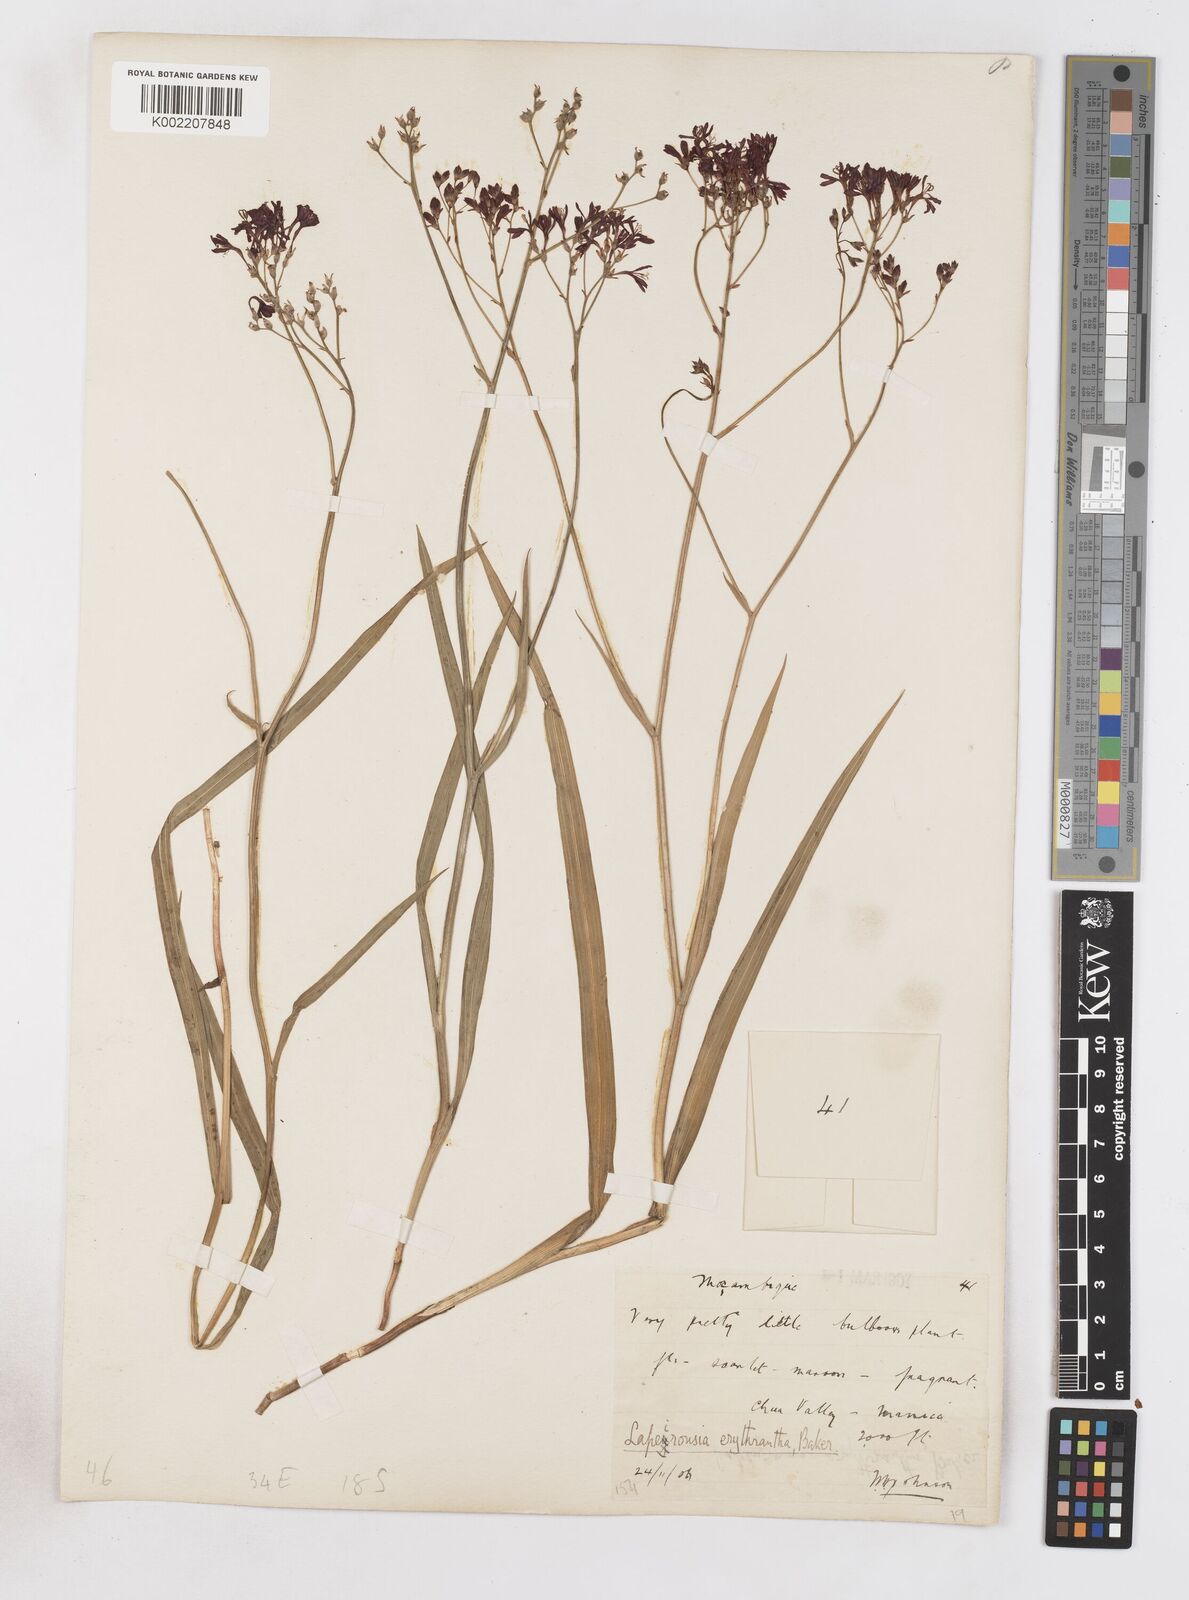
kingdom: Plantae
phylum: Tracheophyta
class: Liliopsida
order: Asparagales
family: Iridaceae
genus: Afrosolen
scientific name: Afrosolen erythranthus
